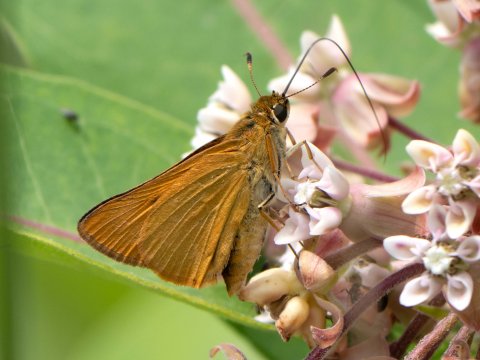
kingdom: Animalia
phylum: Arthropoda
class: Insecta
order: Lepidoptera
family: Hesperiidae
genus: Atrytone
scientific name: Atrytone delaware
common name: Delaware Skipper
